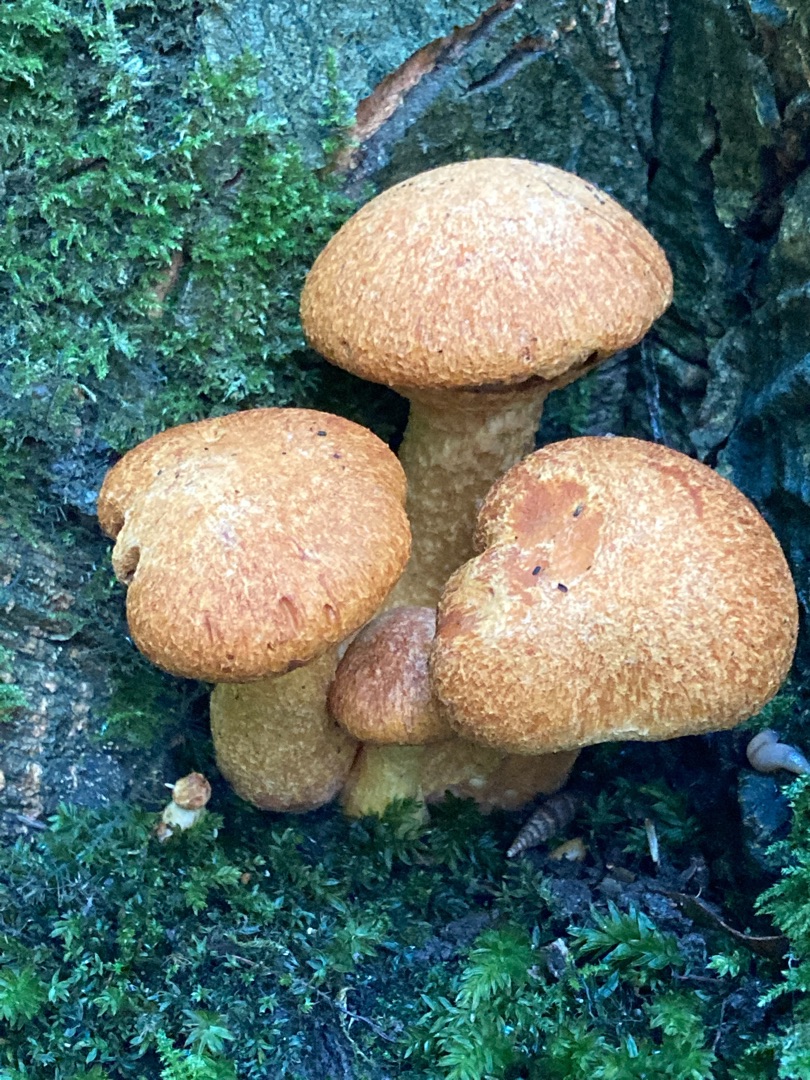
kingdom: Fungi
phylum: Basidiomycota
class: Agaricomycetes
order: Agaricales
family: Hymenogastraceae
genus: Gymnopilus
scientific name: Gymnopilus spectabilis
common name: Fibret flammehat
